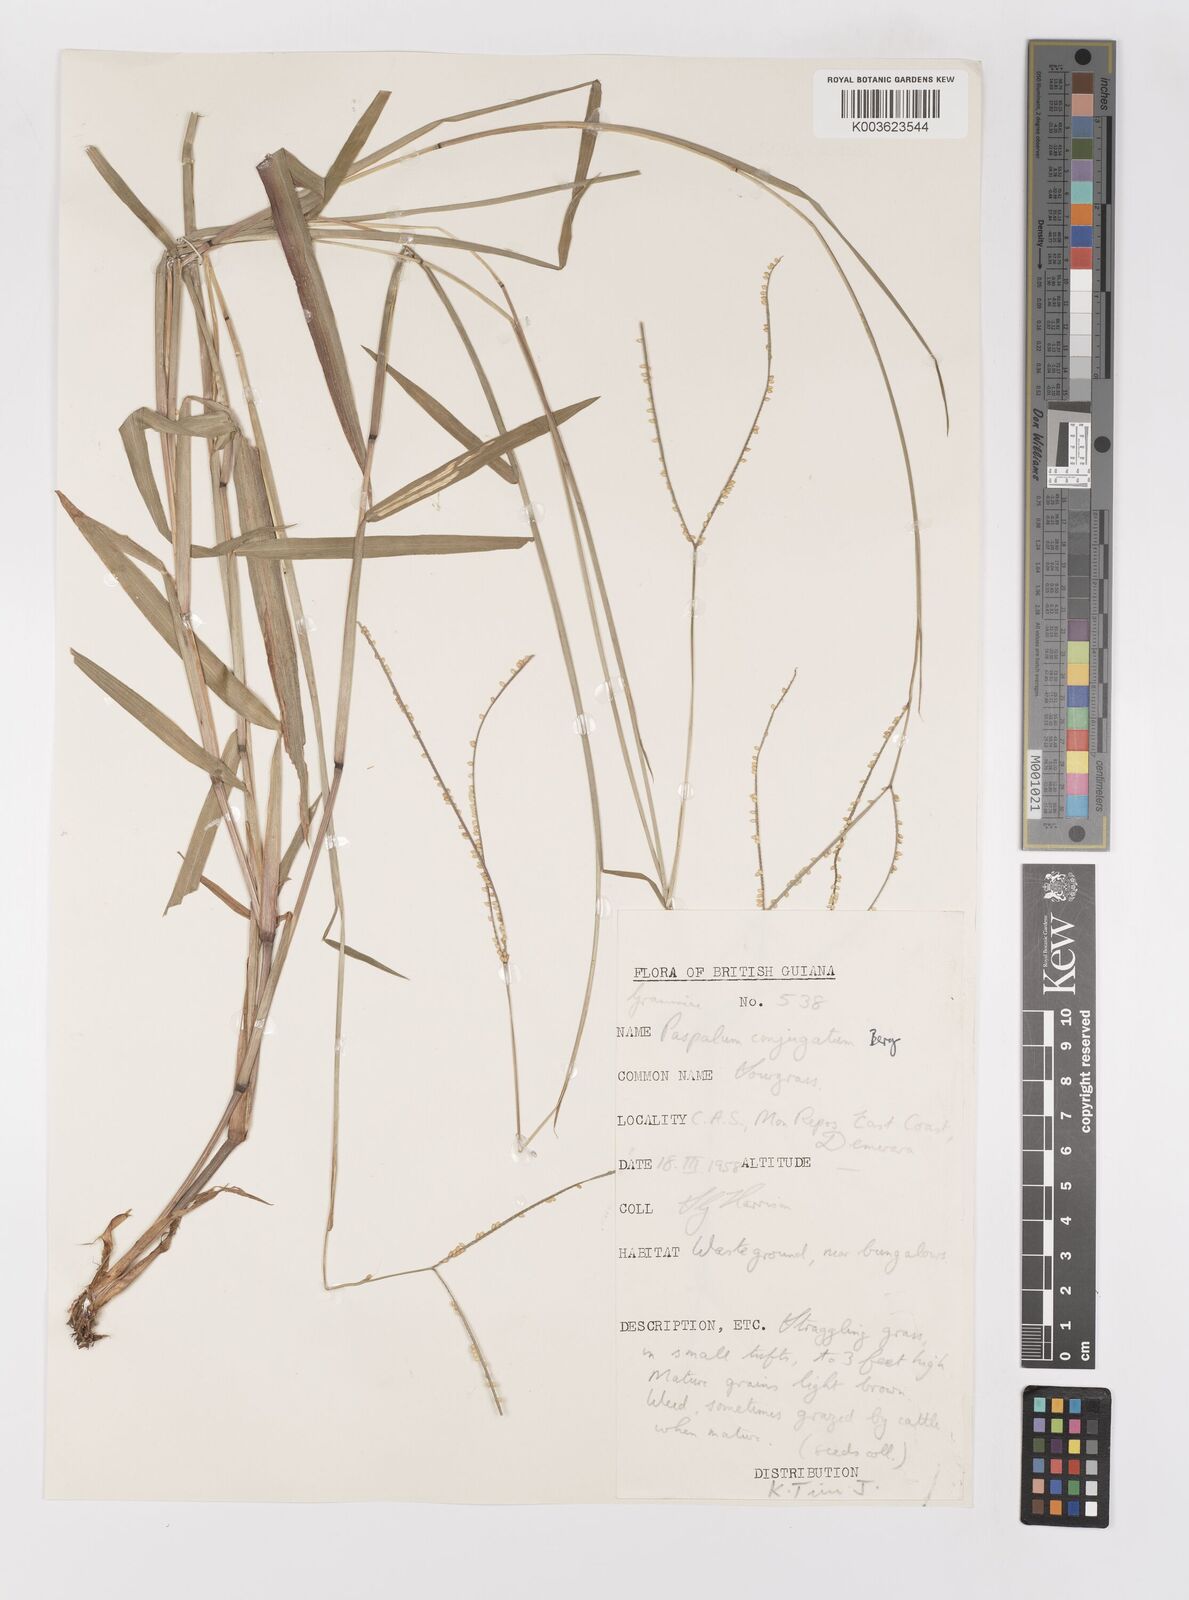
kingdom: Plantae
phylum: Tracheophyta
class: Liliopsida
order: Poales
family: Poaceae
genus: Paspalum
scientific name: Paspalum conjugatum
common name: Hilograss
